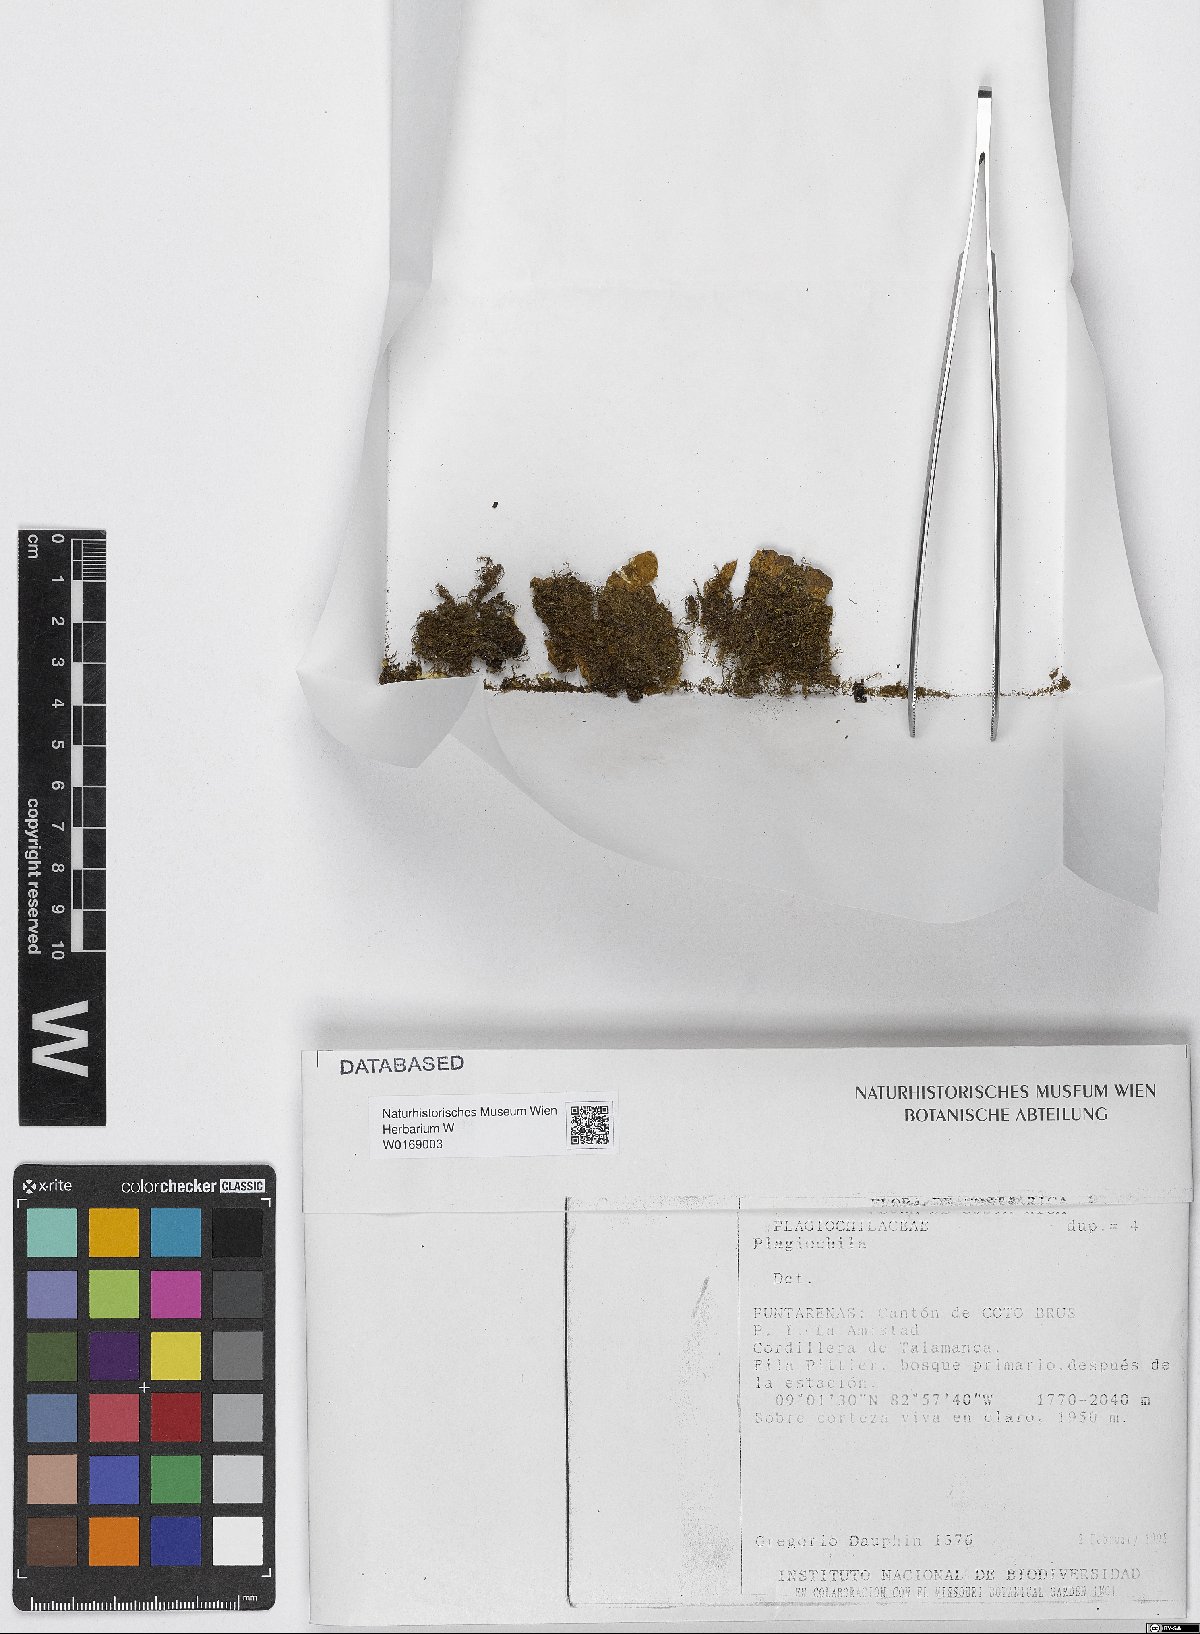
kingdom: Plantae
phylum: Marchantiophyta
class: Jungermanniopsida
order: Jungermanniales
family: Plagiochilaceae
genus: Plagiochila
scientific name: Plagiochila
